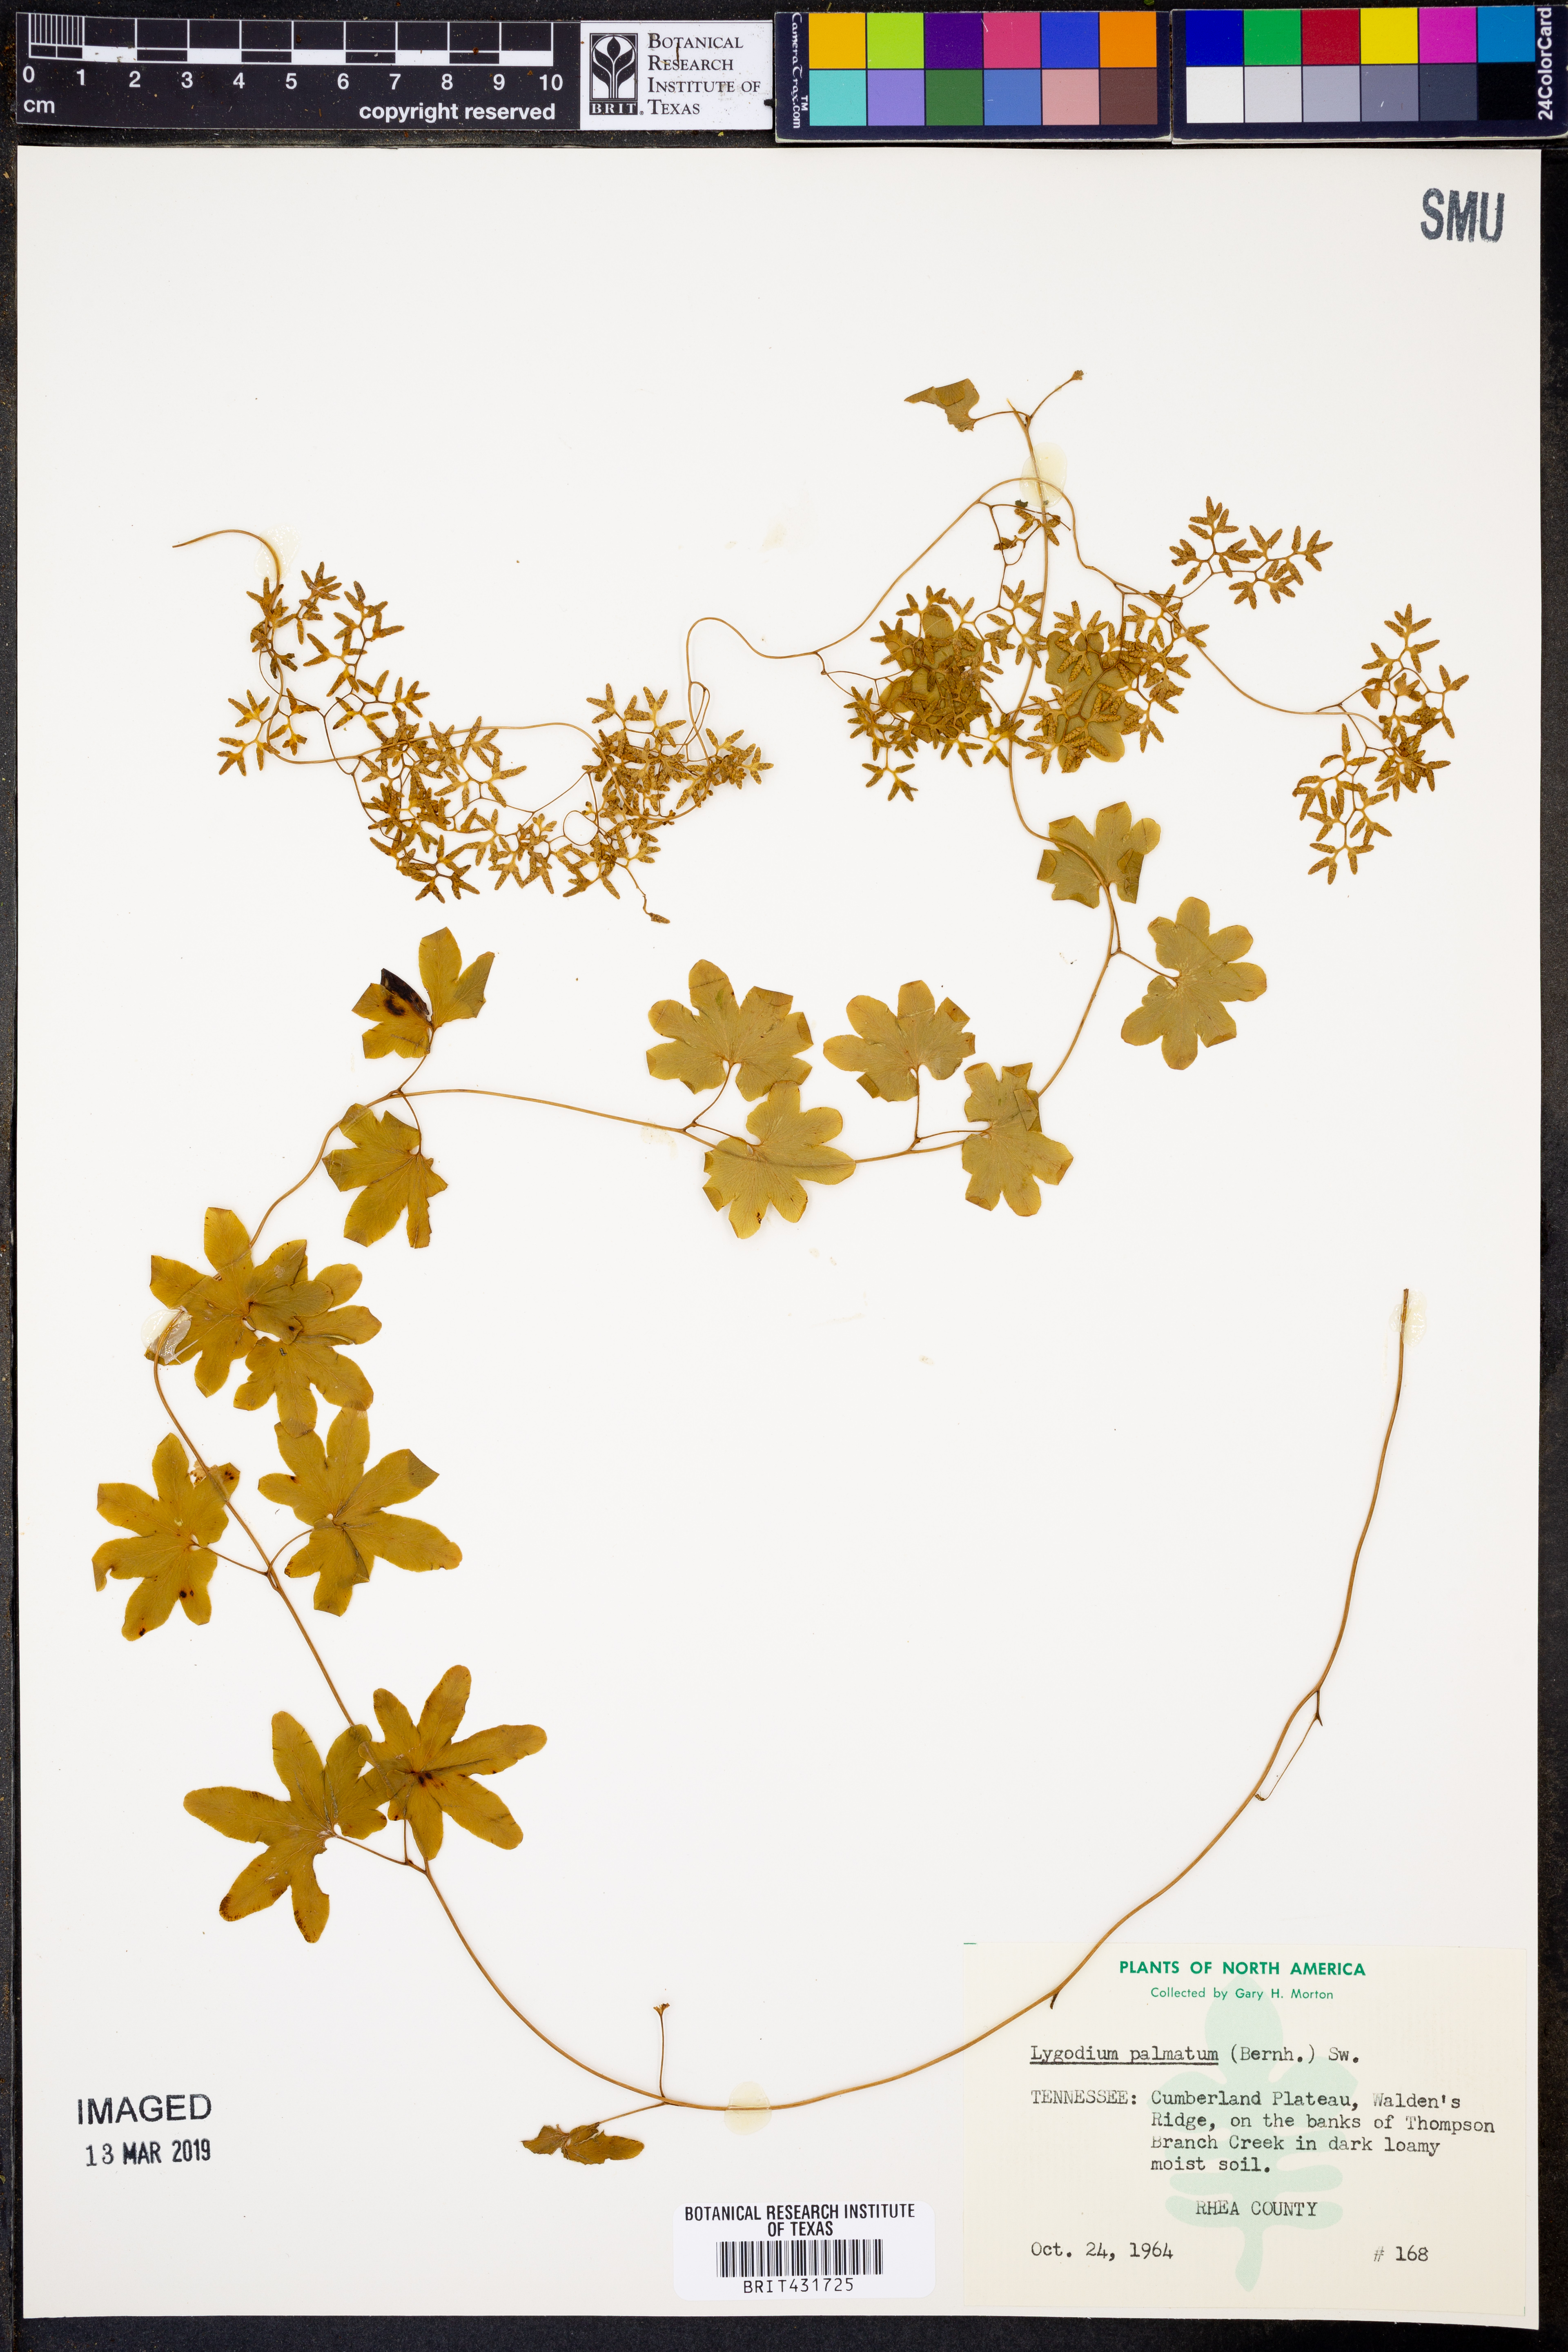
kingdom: Plantae
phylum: Tracheophyta
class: Polypodiopsida
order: Schizaeales
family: Lygodiaceae
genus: Lygodium
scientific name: Lygodium palmatum
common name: American climbing fern
